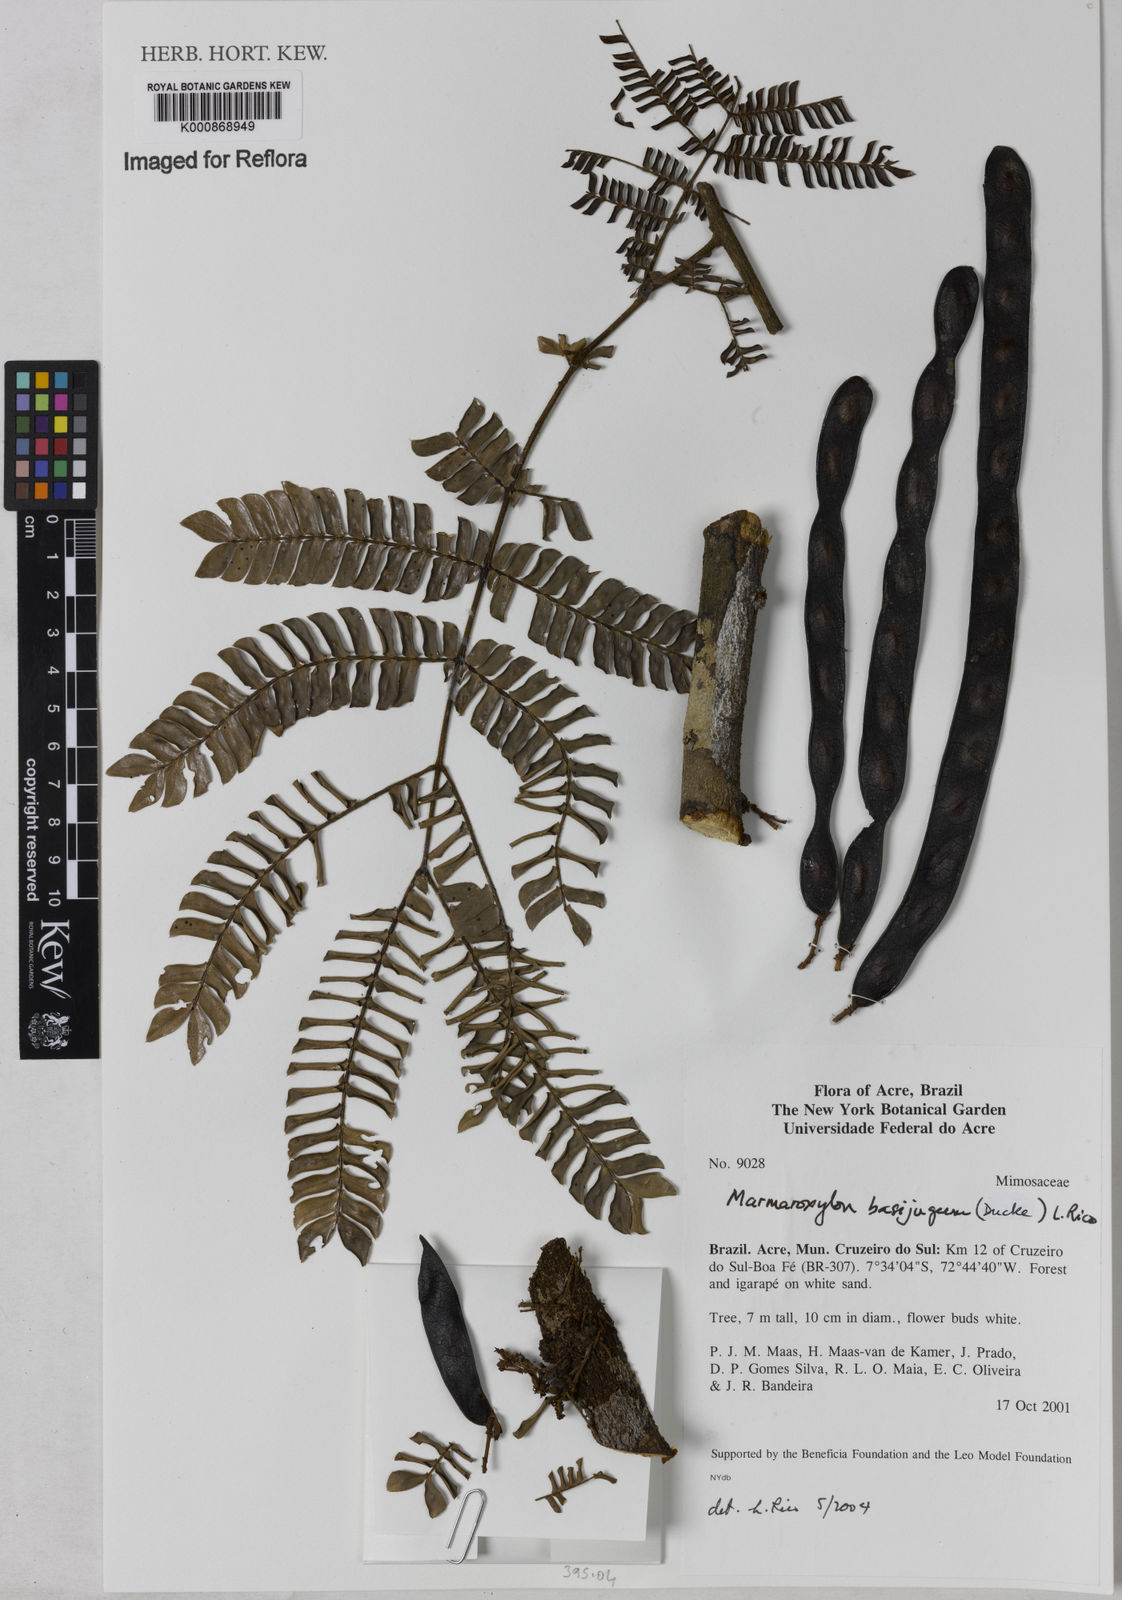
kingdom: Plantae
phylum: Tracheophyta
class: Magnoliopsida
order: Fabales
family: Fabaceae
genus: Zygia
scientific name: Zygia basijuga
